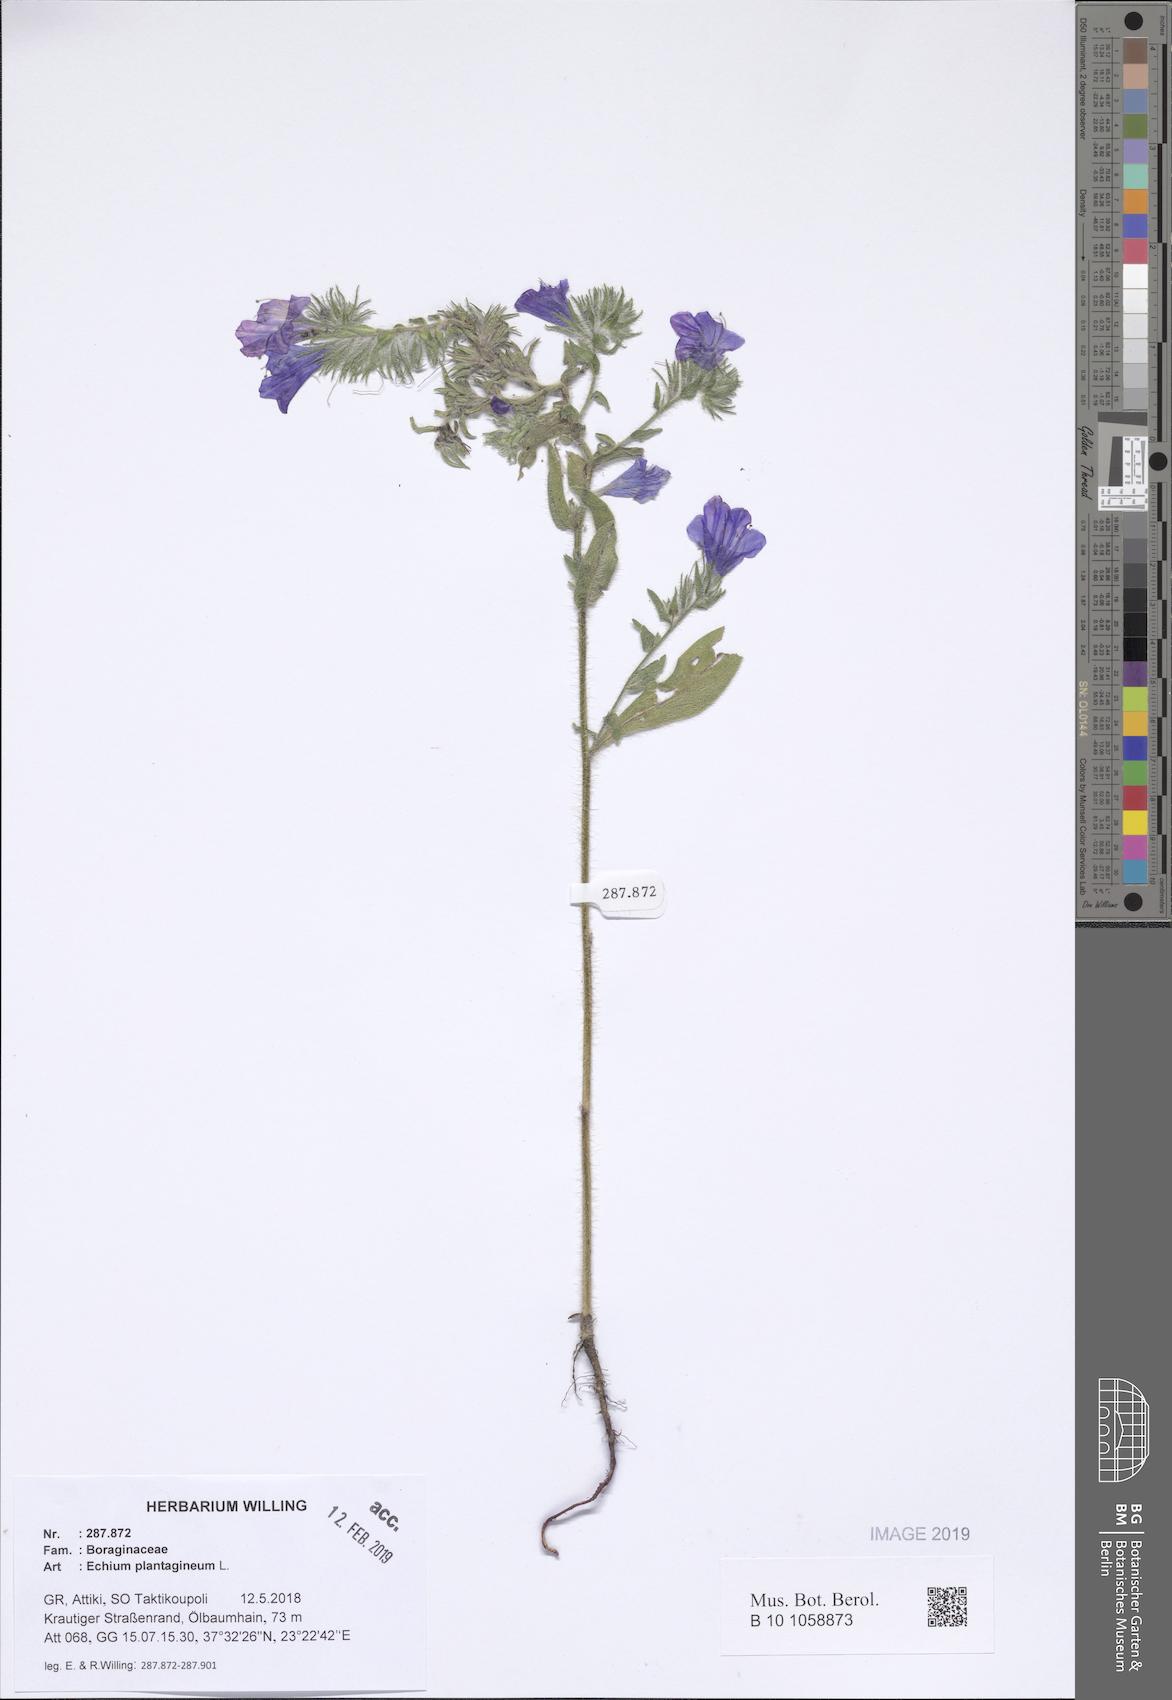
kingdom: Plantae
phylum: Tracheophyta
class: Magnoliopsida
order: Boraginales
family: Boraginaceae
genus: Echium
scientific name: Echium plantagineum
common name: Purple viper's-bugloss
